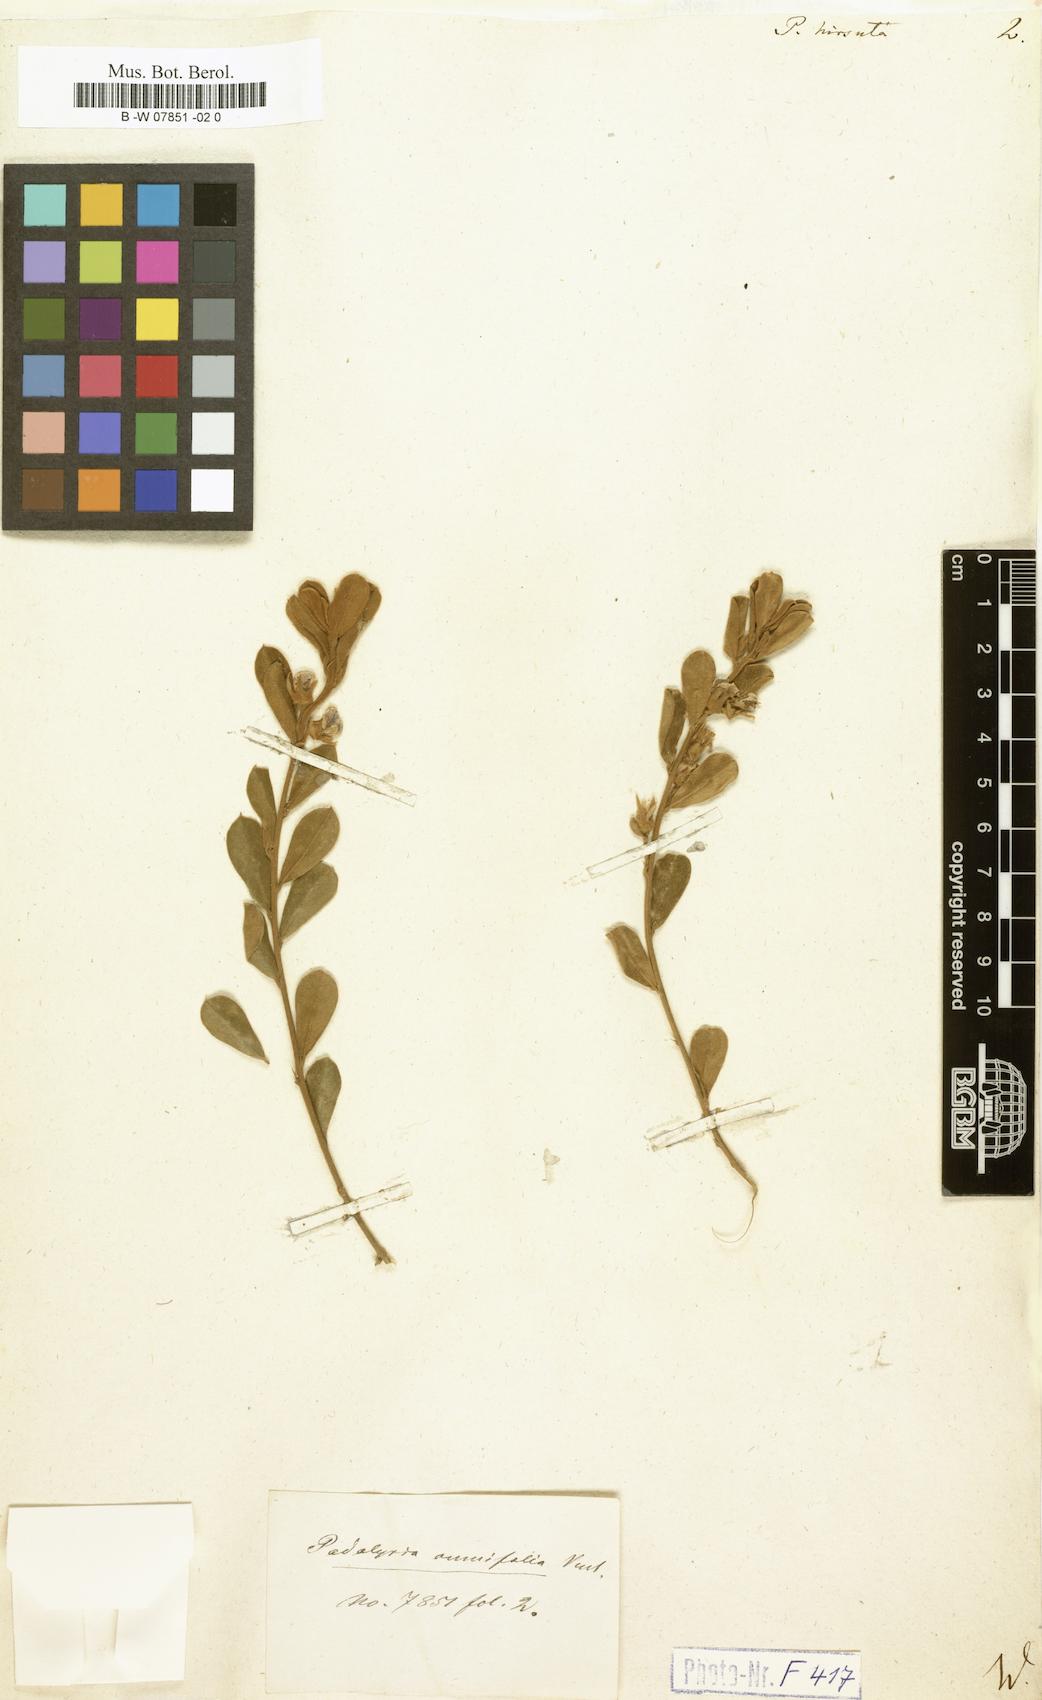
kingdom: Plantae
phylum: Tracheophyta
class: Magnoliopsida
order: Fabales
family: Fabaceae
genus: Podalyria
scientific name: Podalyria hirsuta
